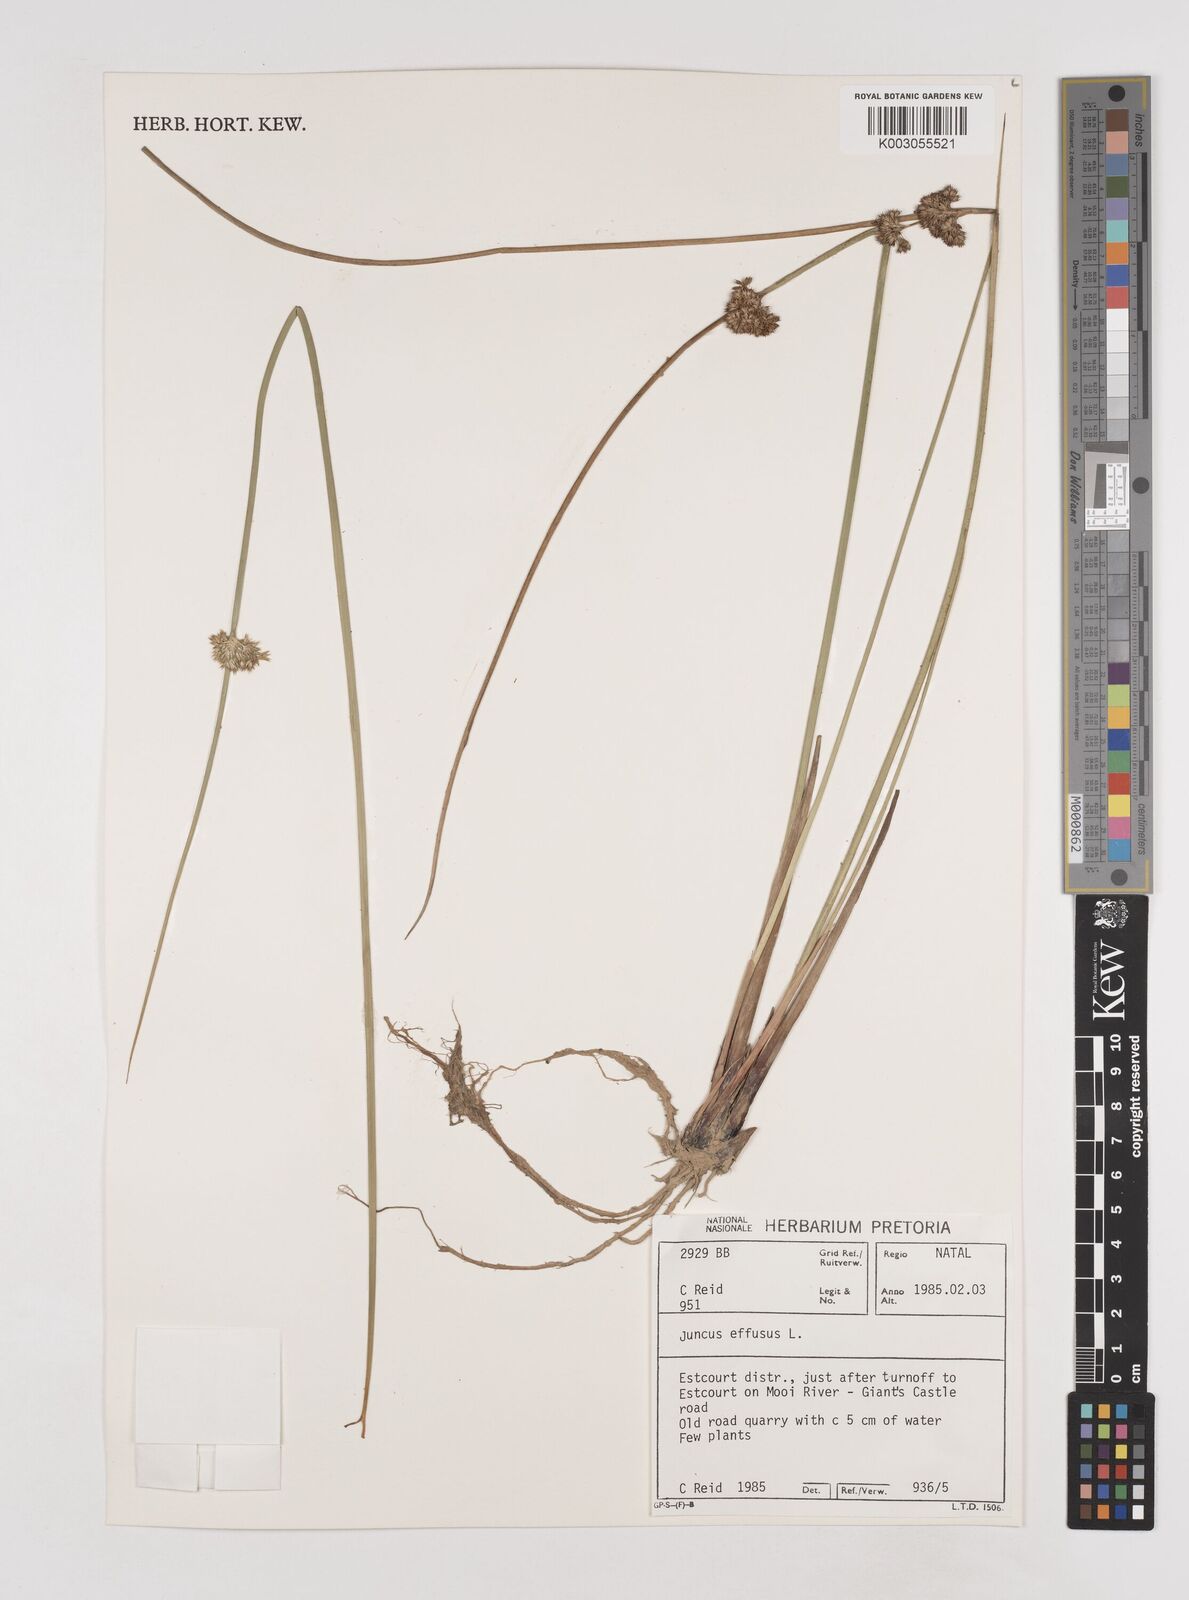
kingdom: Plantae
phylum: Tracheophyta
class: Liliopsida
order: Poales
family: Juncaceae
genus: Juncus
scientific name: Juncus effusus
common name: Soft rush
